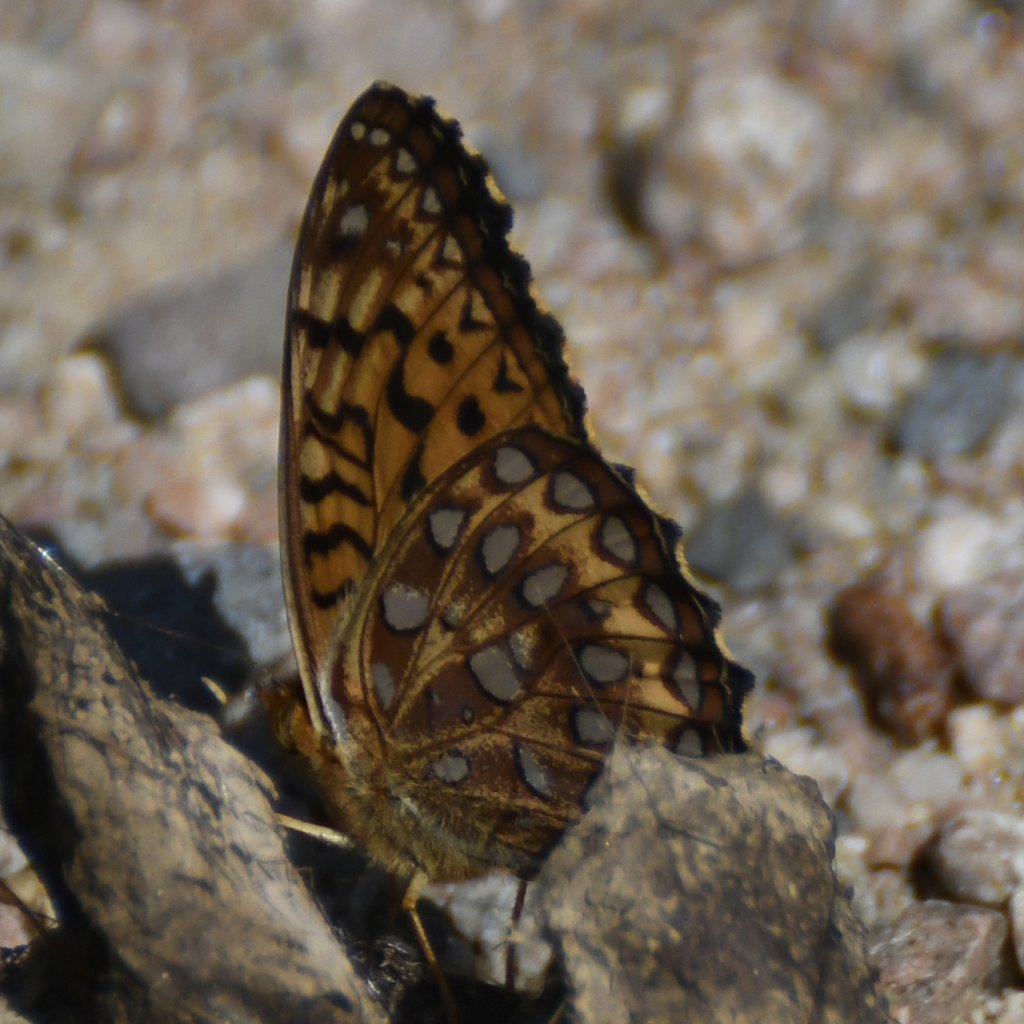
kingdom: Animalia
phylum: Arthropoda
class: Insecta
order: Lepidoptera
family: Nymphalidae
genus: Speyeria
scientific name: Speyeria aphrodite
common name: Aphrodite Fritillary
